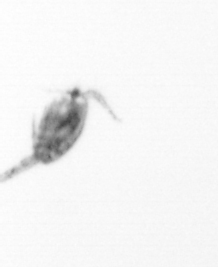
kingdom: Animalia
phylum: Arthropoda
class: Copepoda
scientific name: Copepoda
